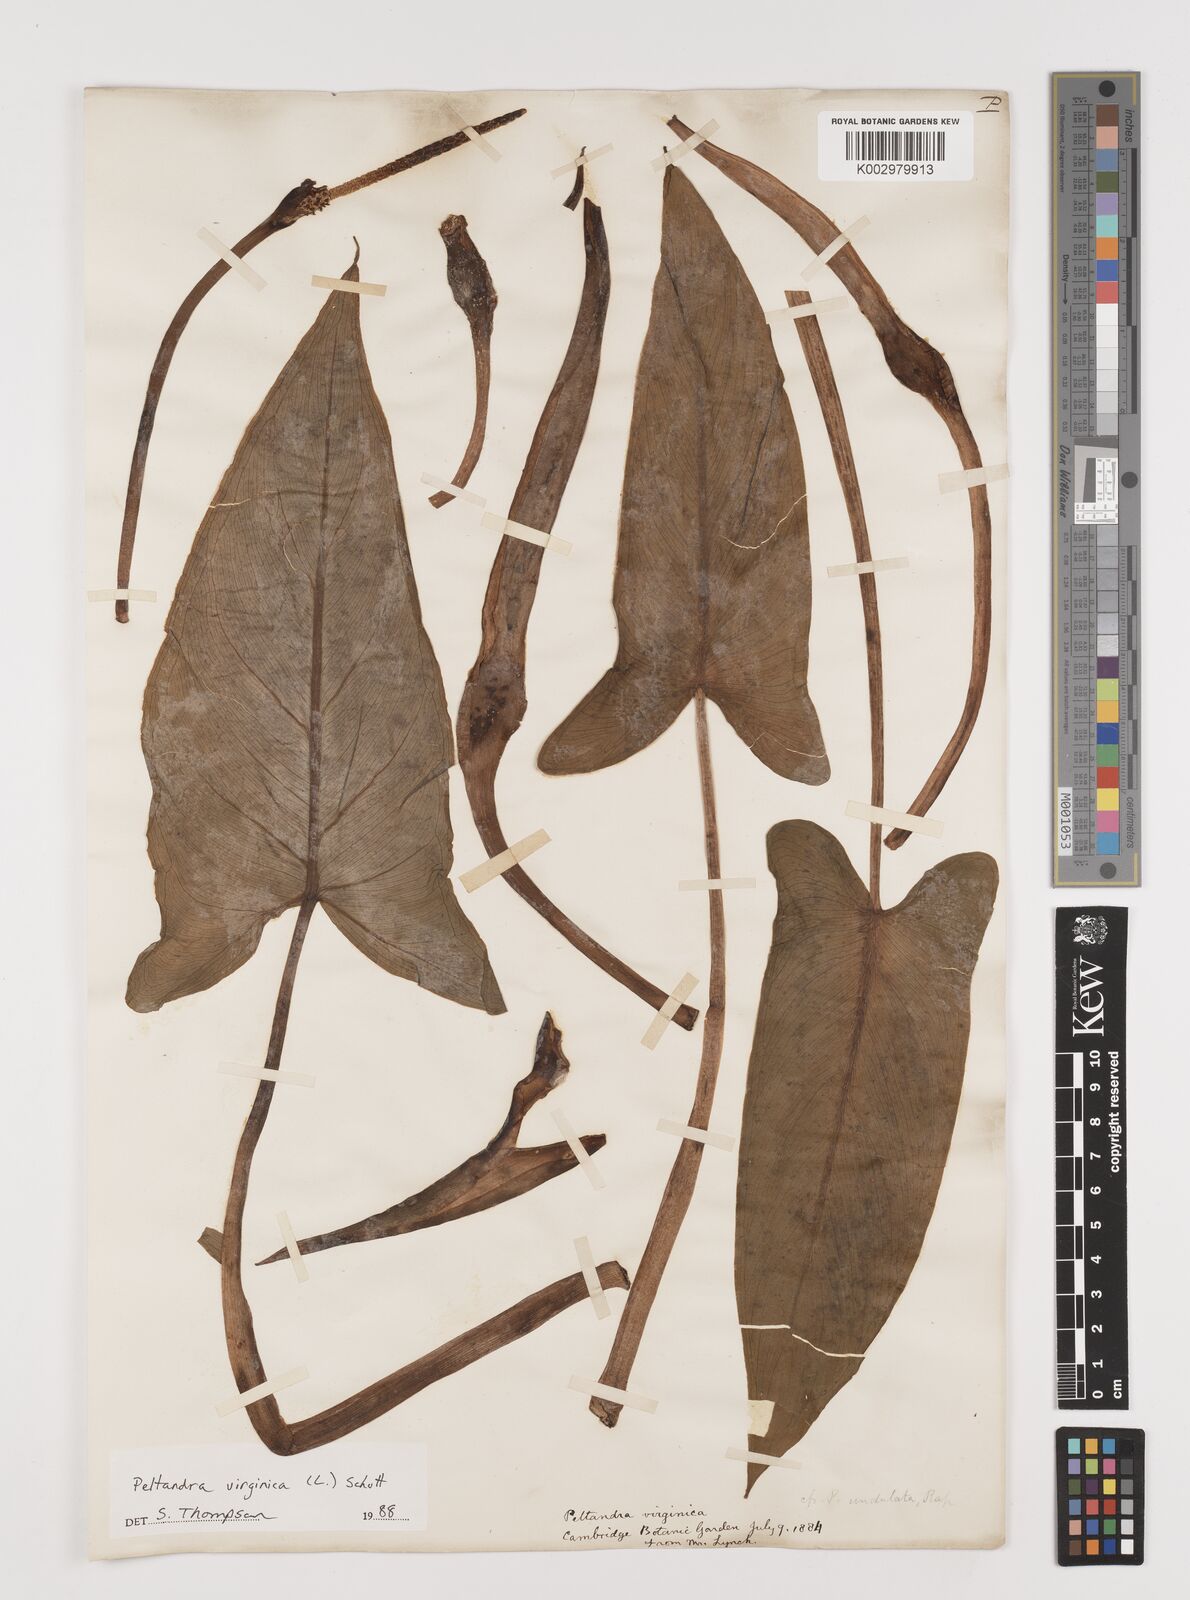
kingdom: Plantae
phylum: Tracheophyta
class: Liliopsida
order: Alismatales
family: Araceae
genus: Peltandra
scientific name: Peltandra virginica
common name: Arrow arum
